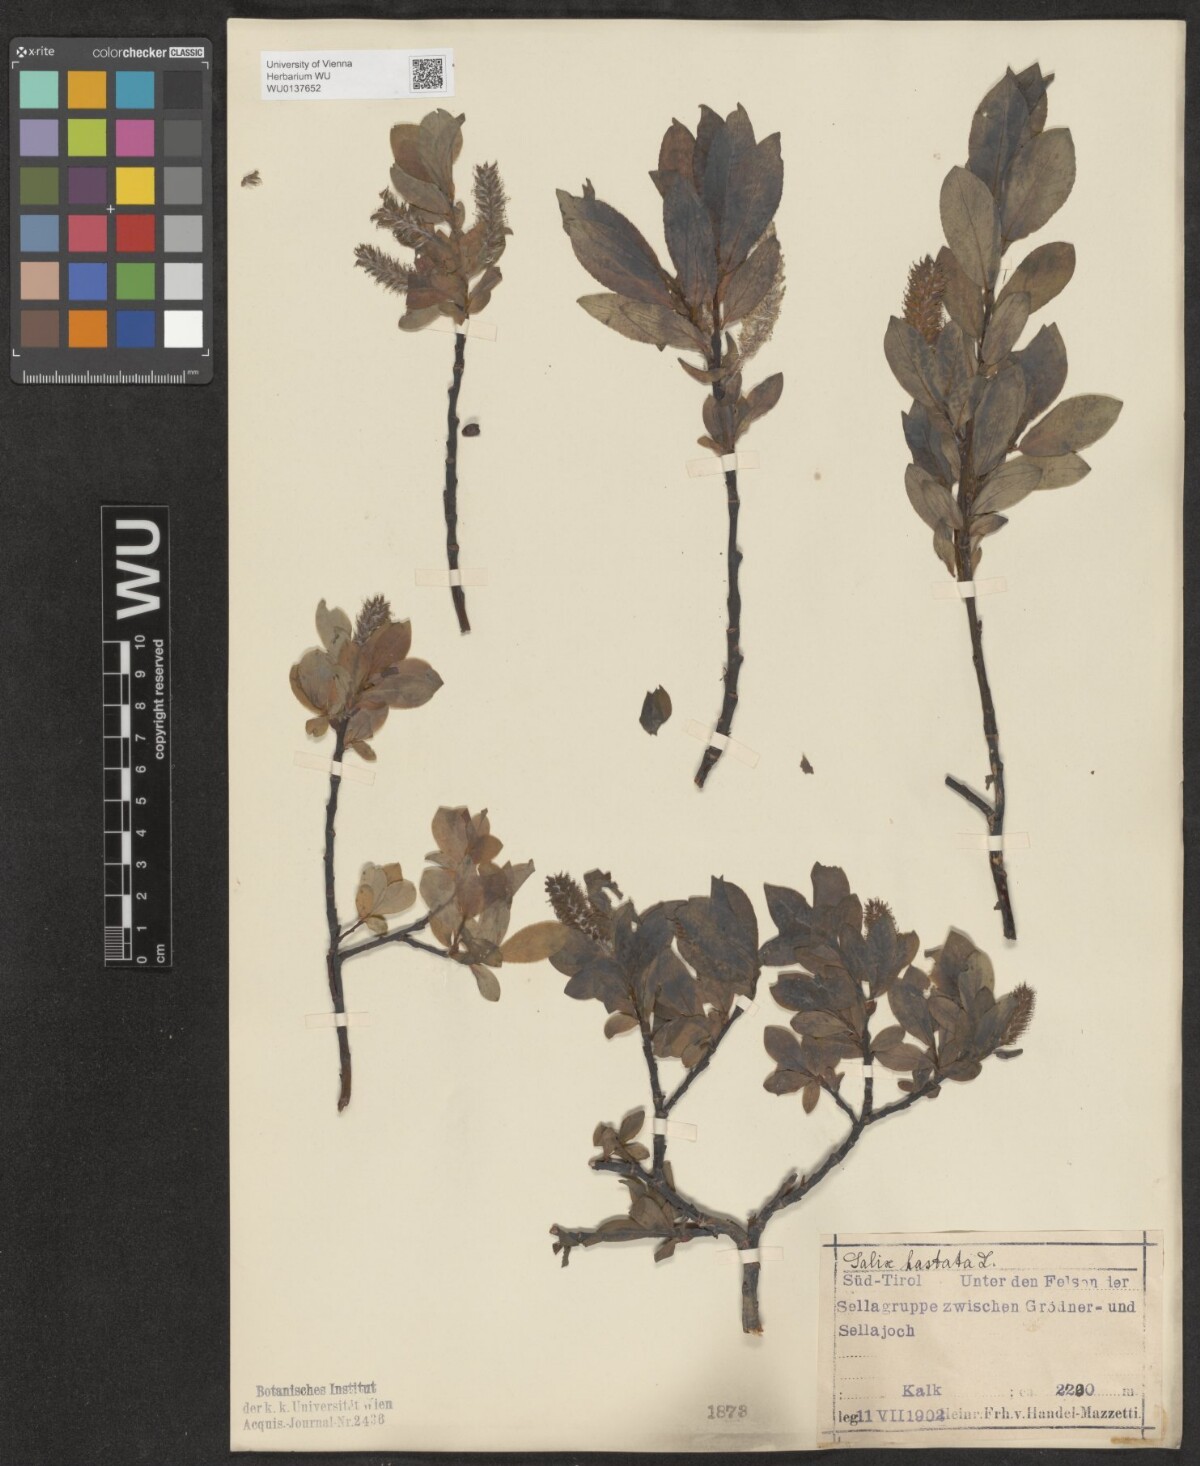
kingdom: Plantae
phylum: Tracheophyta
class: Magnoliopsida
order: Malpighiales
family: Salicaceae
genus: Salix
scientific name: Salix hastata
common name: Halberd willow
